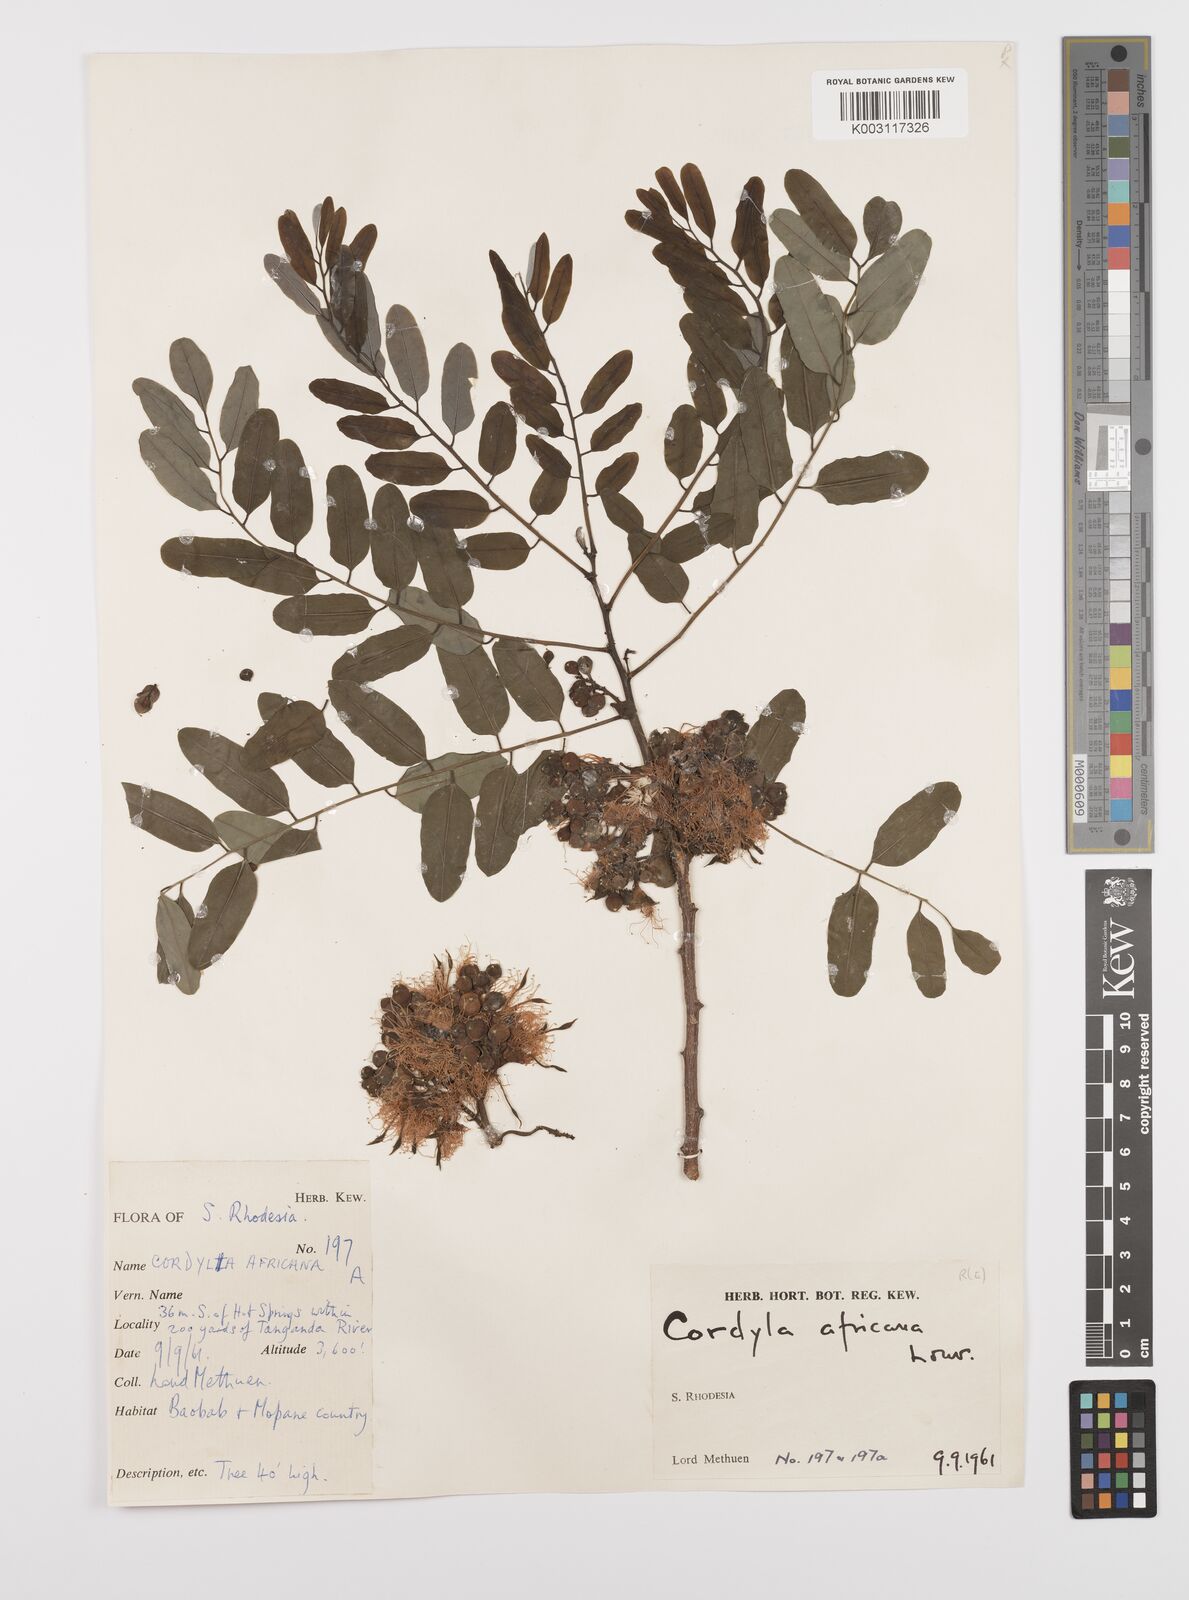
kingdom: Plantae
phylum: Tracheophyta
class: Magnoliopsida
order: Fabales
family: Fabaceae
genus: Cordyla
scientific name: Cordyla africana
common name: Wild mango
